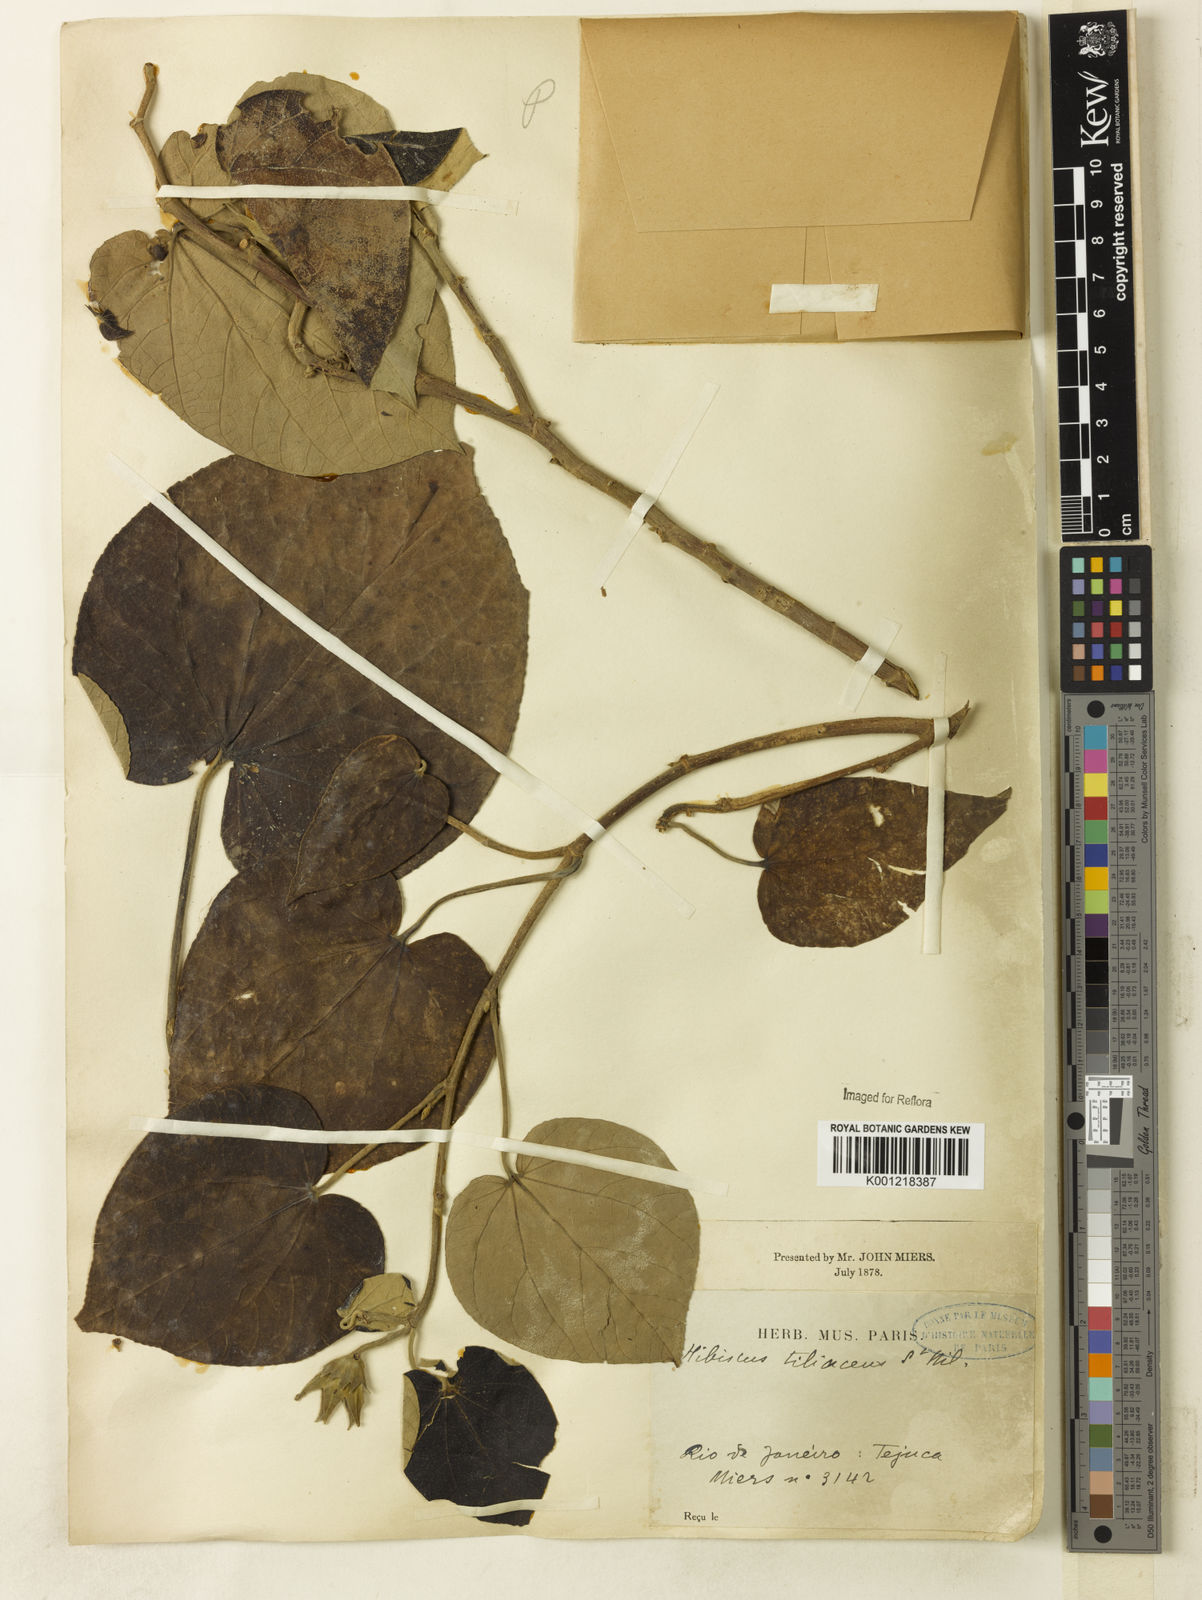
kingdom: Plantae
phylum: Tracheophyta
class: Magnoliopsida
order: Malvales
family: Malvaceae
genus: Hibiscus
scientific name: Hibiscus
